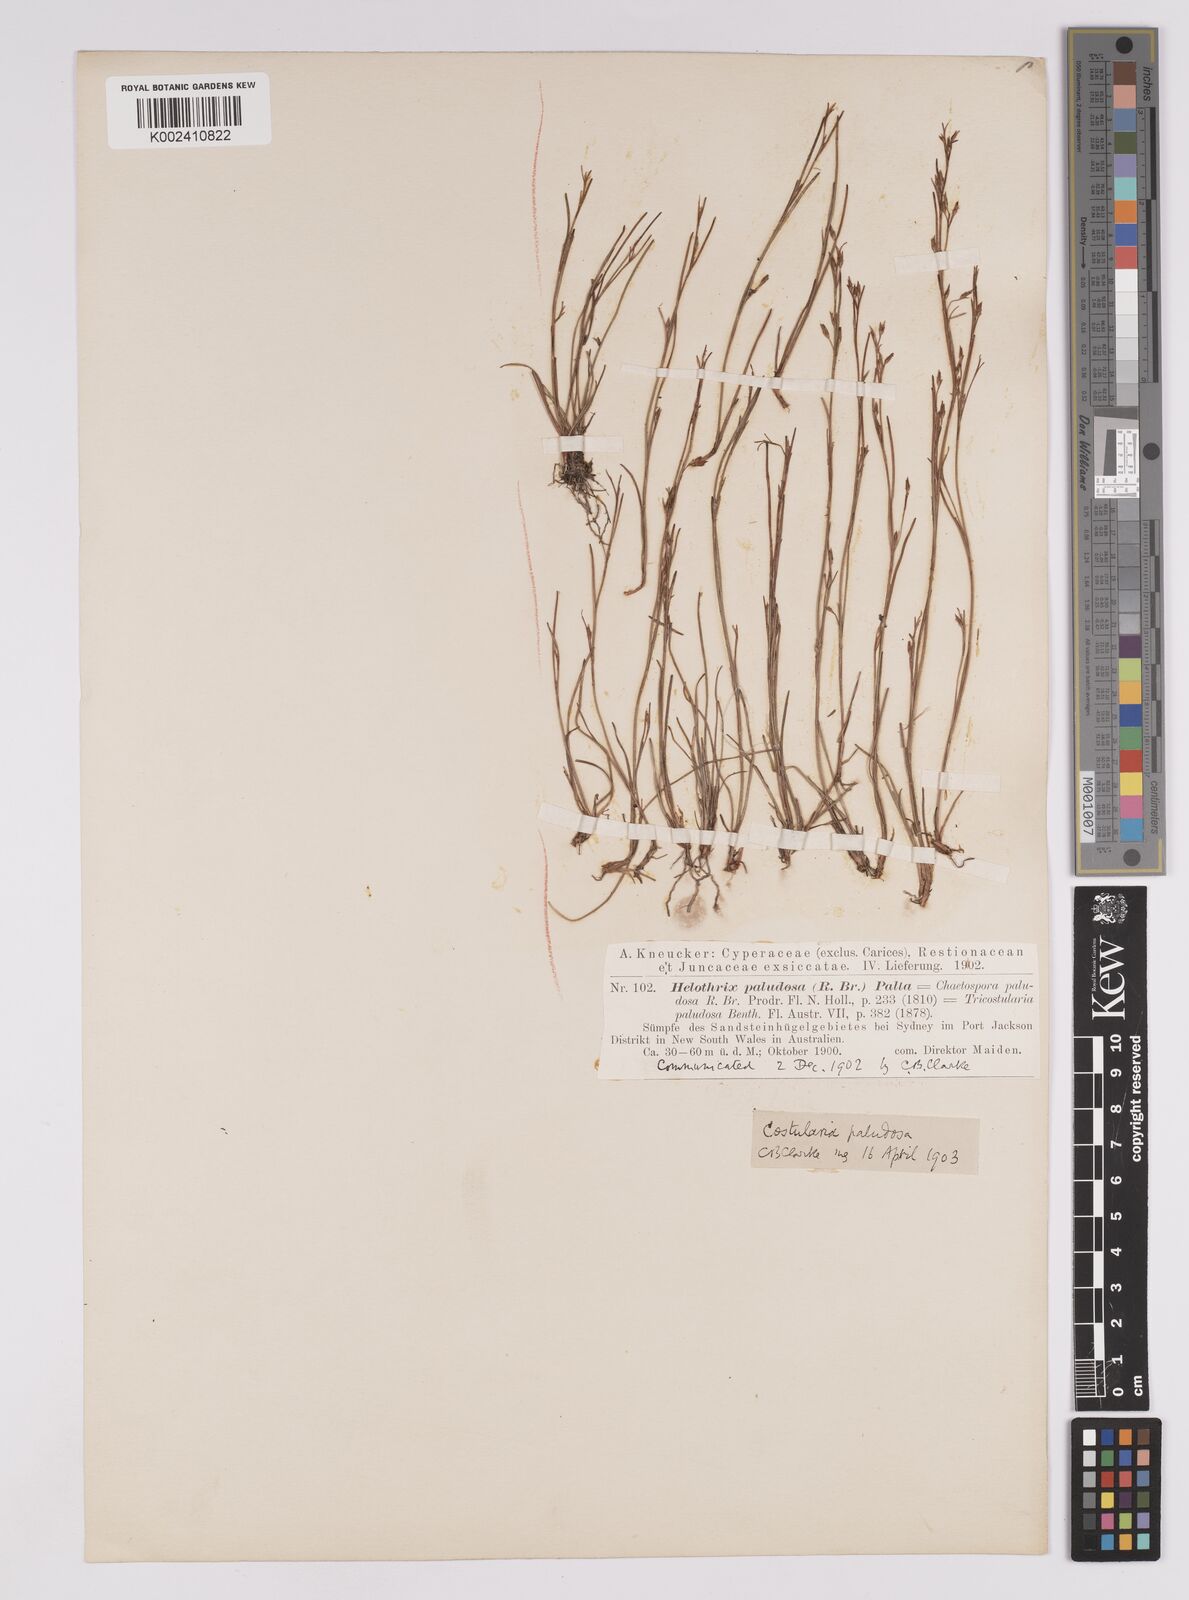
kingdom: Plantae
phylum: Tracheophyta
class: Liliopsida
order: Poales
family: Cyperaceae
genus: Anthelepis
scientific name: Anthelepis paludosa
